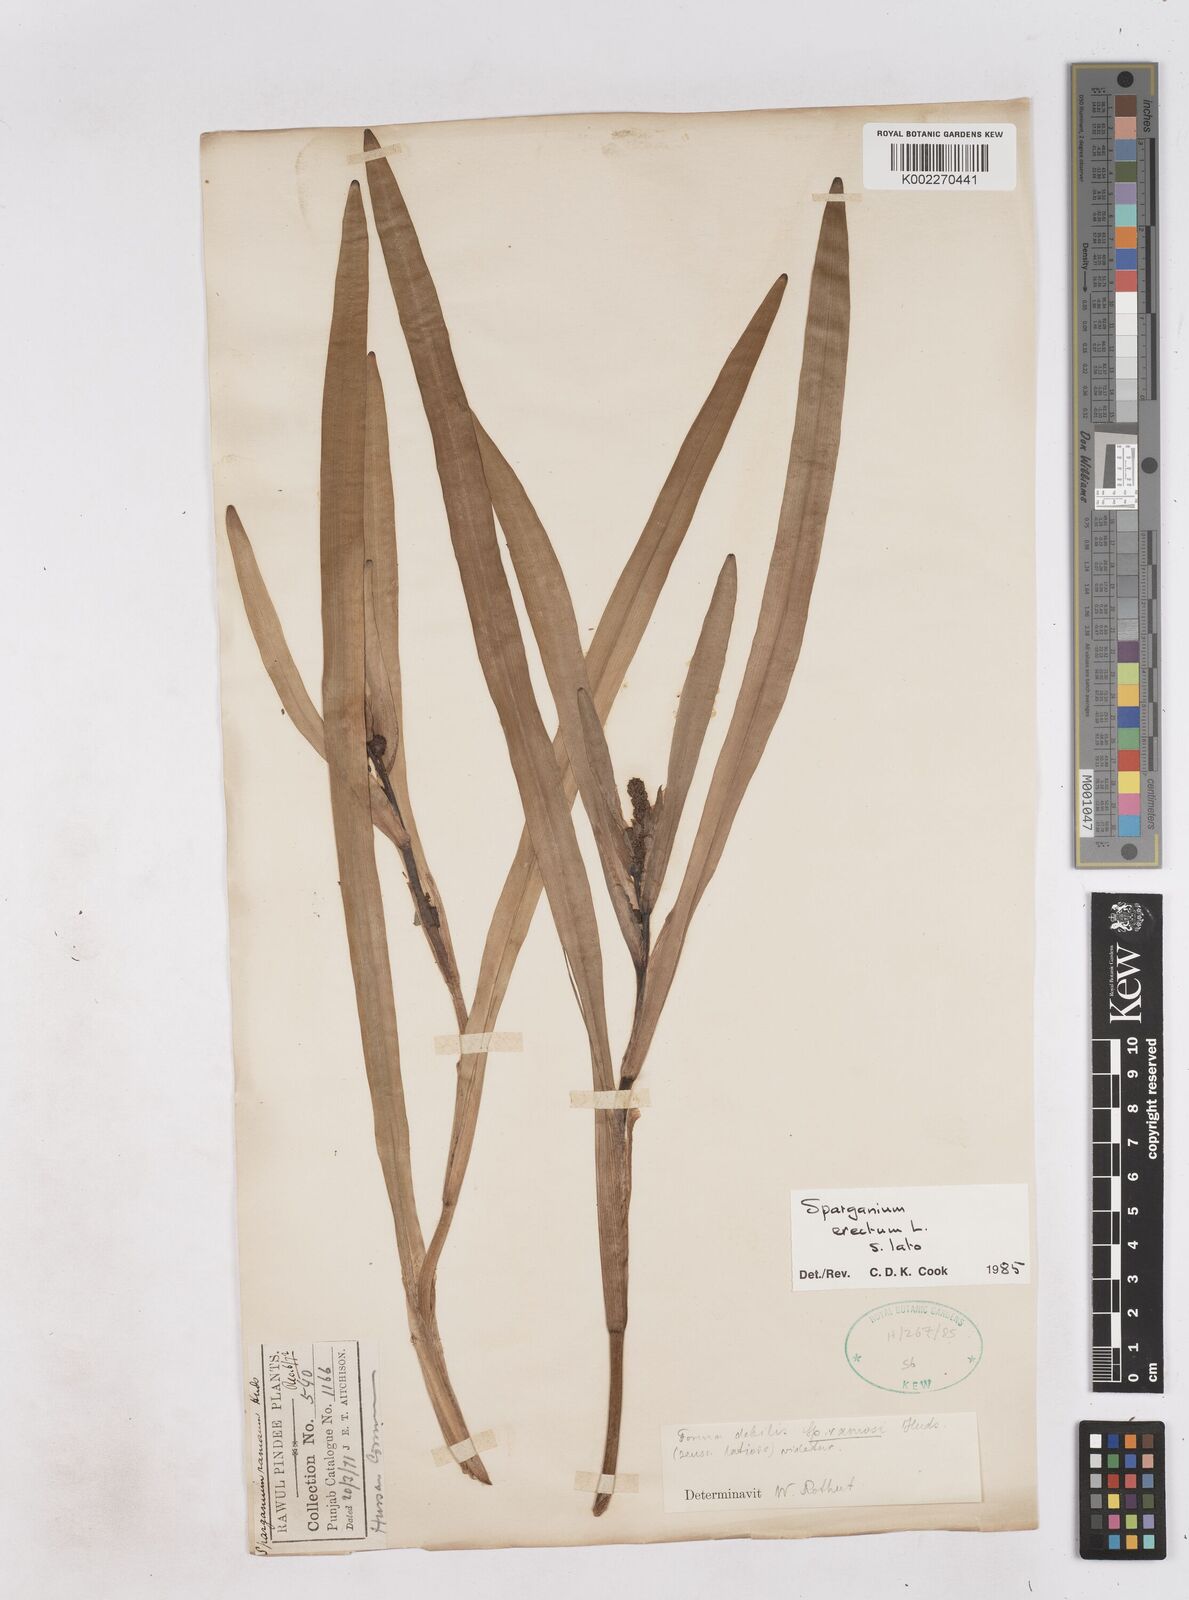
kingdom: Plantae
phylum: Tracheophyta
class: Liliopsida
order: Poales
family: Typhaceae
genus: Sparganium
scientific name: Sparganium erectum
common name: Branched bur-reed
